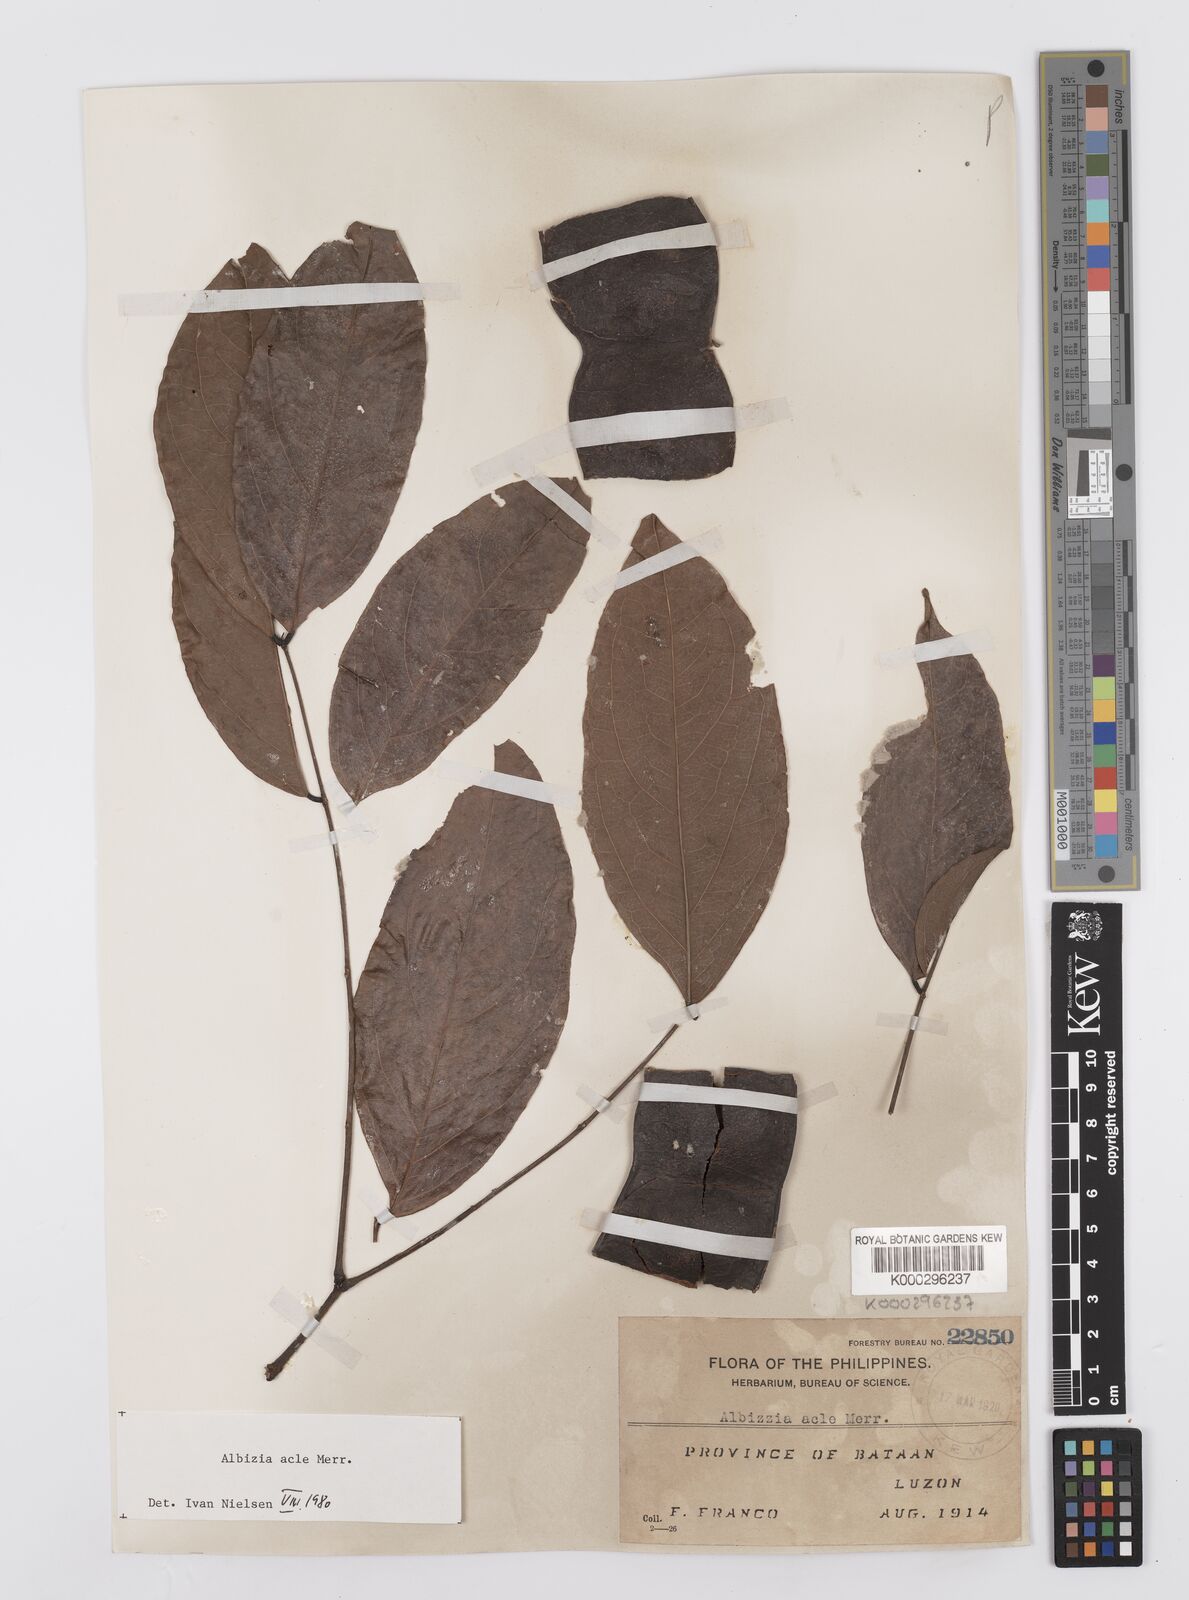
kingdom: Plantae
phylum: Tracheophyta
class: Magnoliopsida
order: Fabales
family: Fabaceae
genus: Albizia
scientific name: Albizia acle
